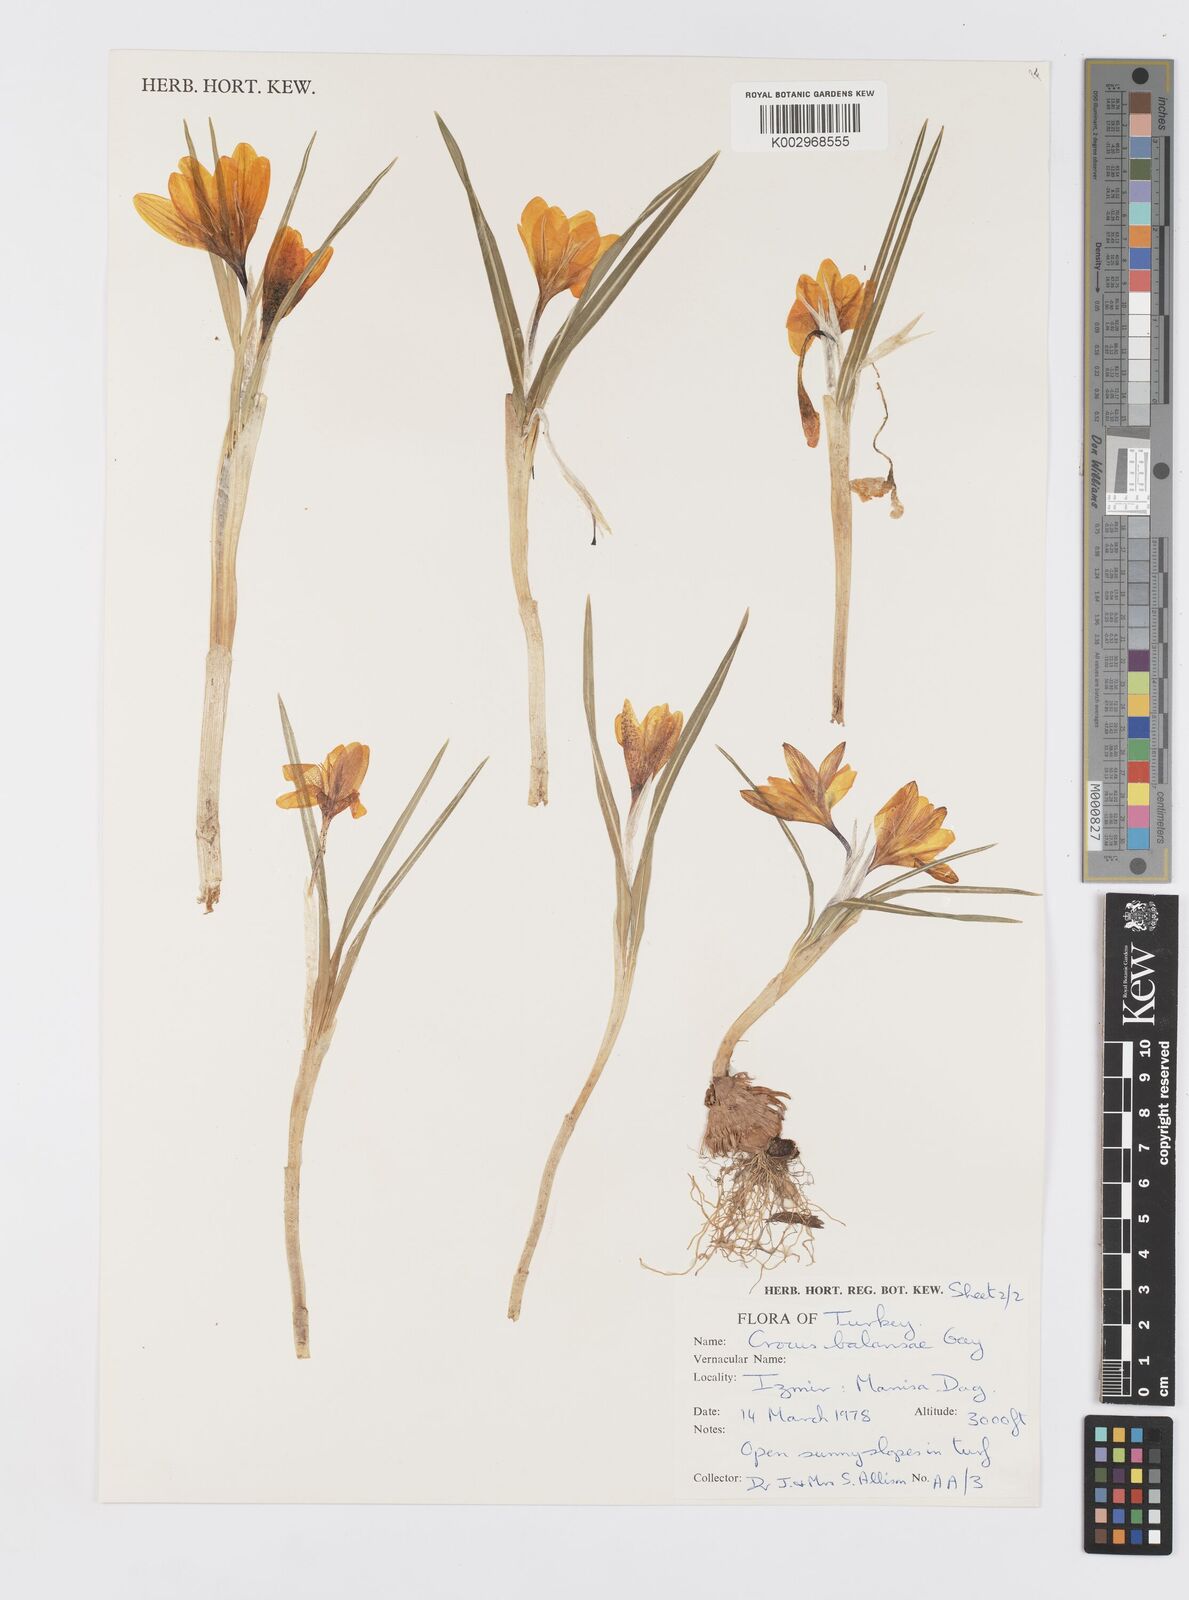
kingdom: Plantae
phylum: Tracheophyta
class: Liliopsida
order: Asparagales
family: Iridaceae
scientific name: Iridaceae
